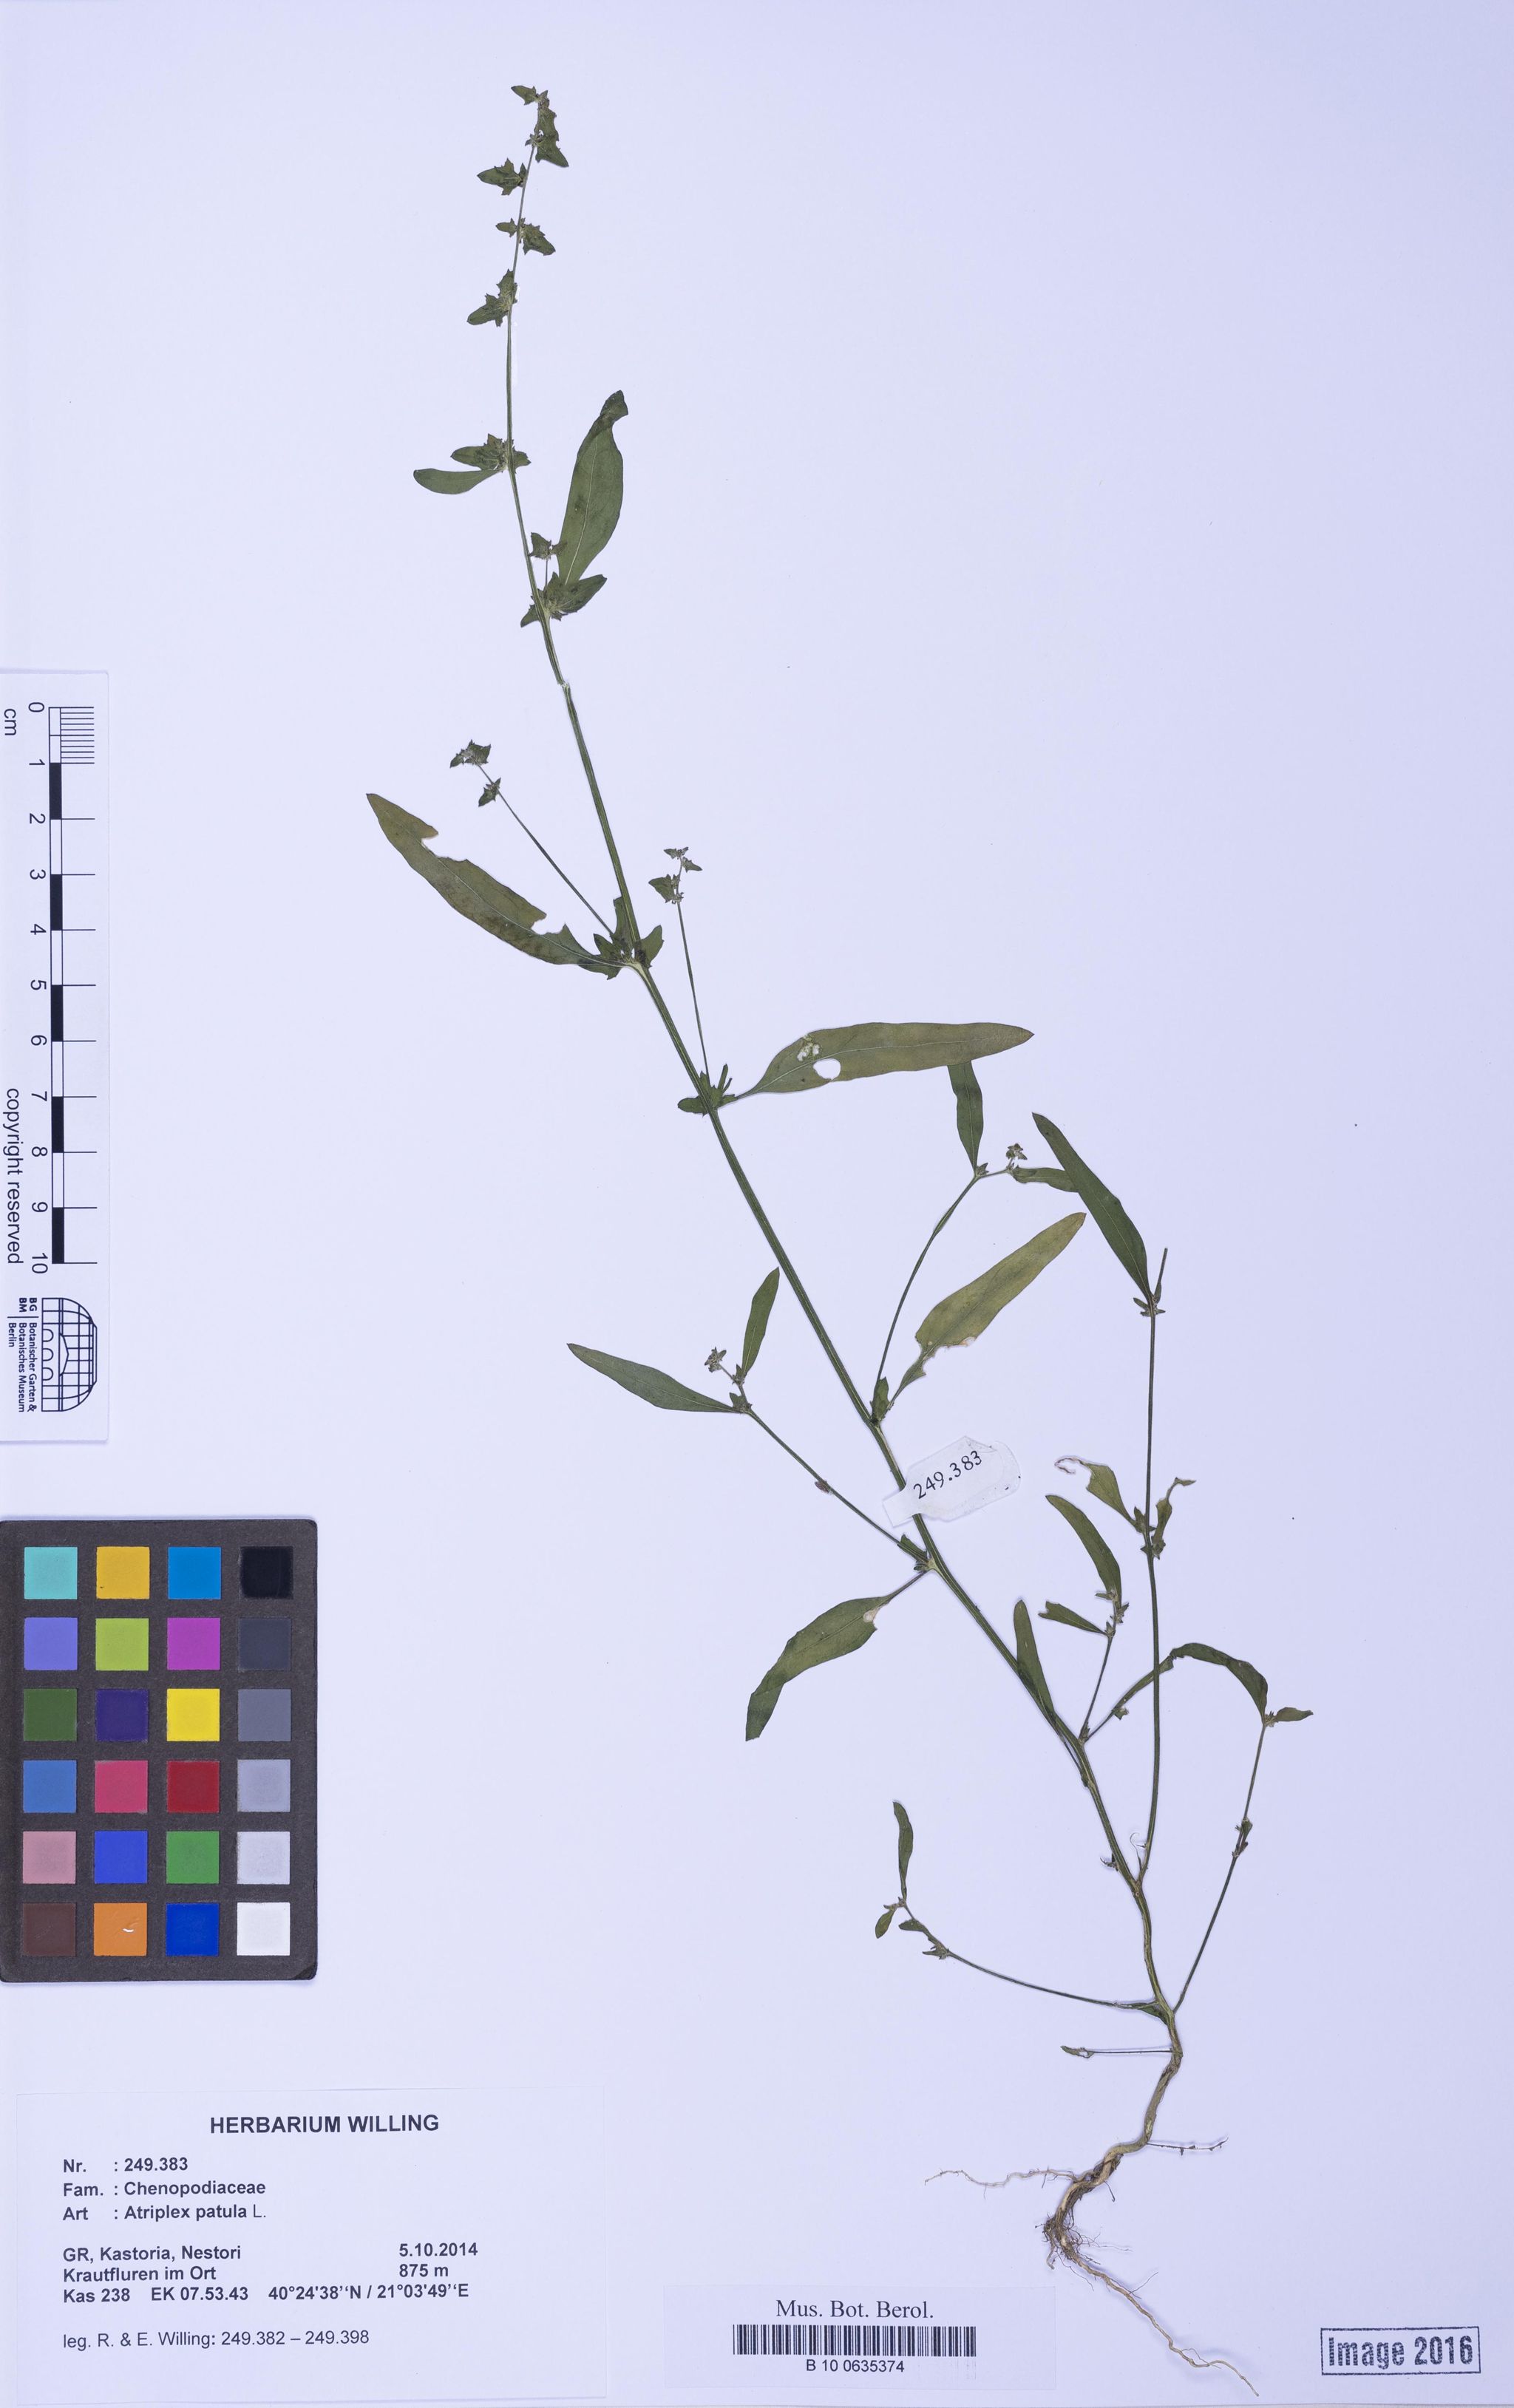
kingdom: Plantae
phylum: Tracheophyta
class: Magnoliopsida
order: Caryophyllales
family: Amaranthaceae
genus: Atriplex
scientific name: Atriplex patula
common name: Common orache
